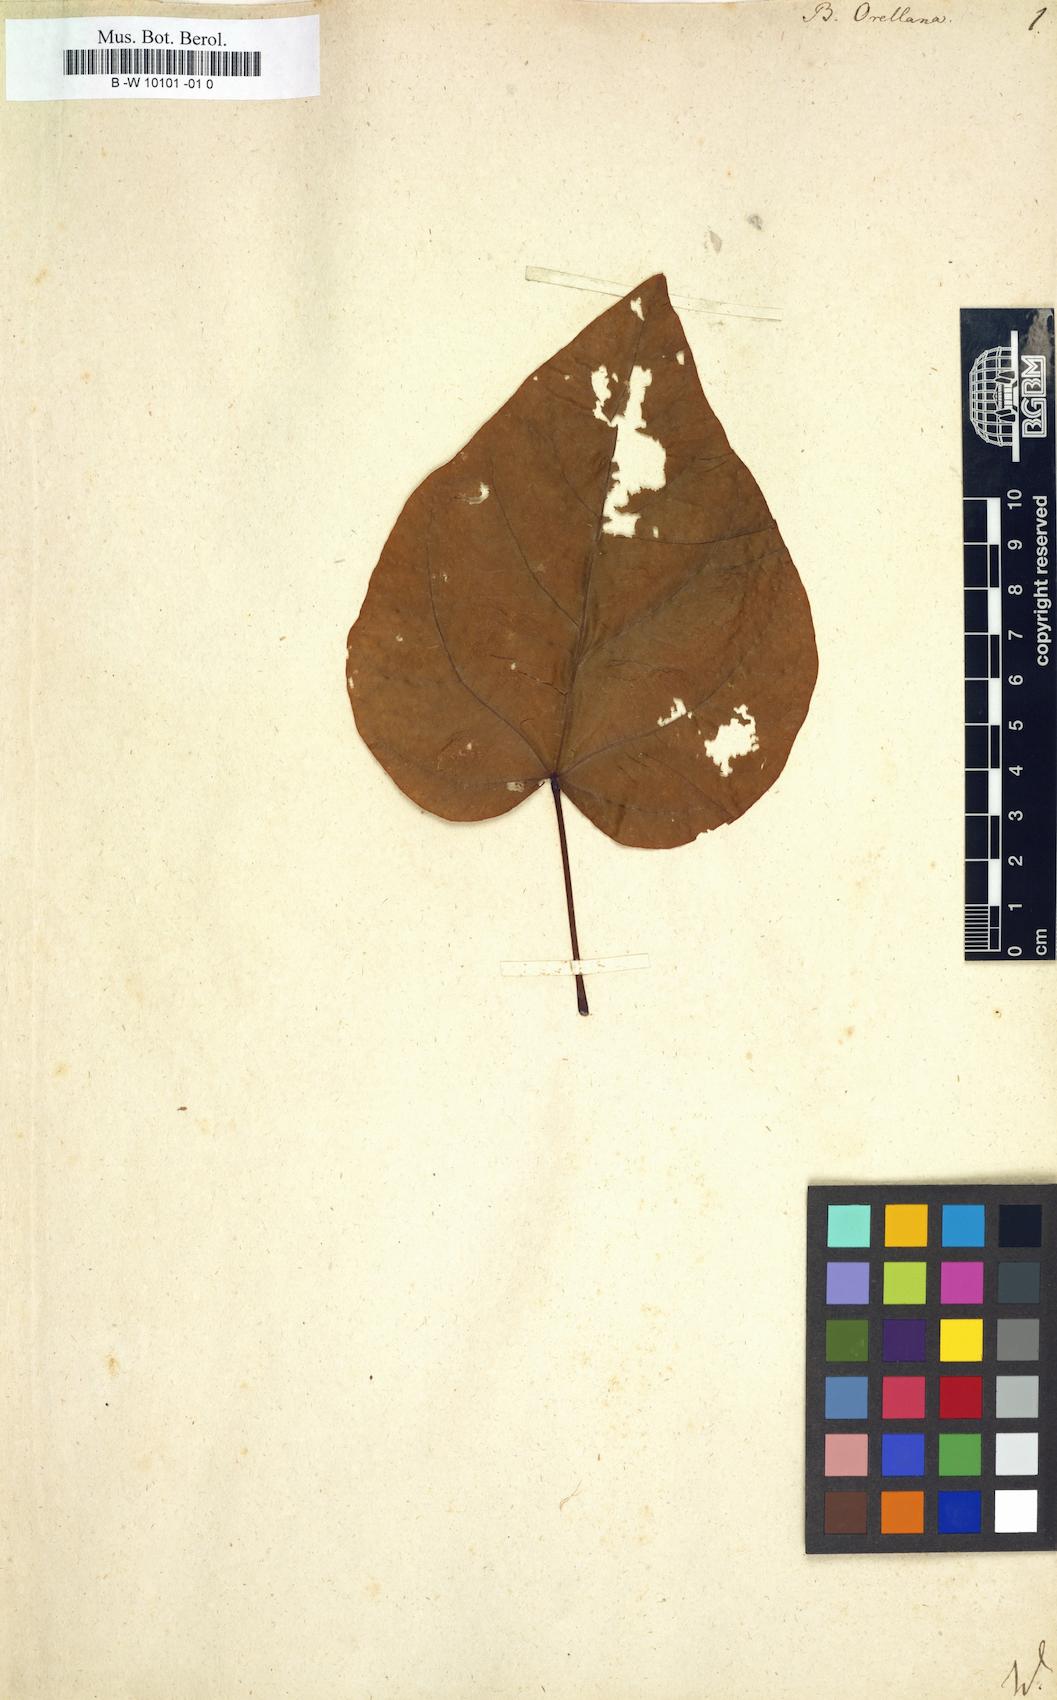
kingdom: Plantae
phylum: Tracheophyta
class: Magnoliopsida
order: Malvales
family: Bixaceae
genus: Bixa
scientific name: Bixa orellana
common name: Lipsticktree
